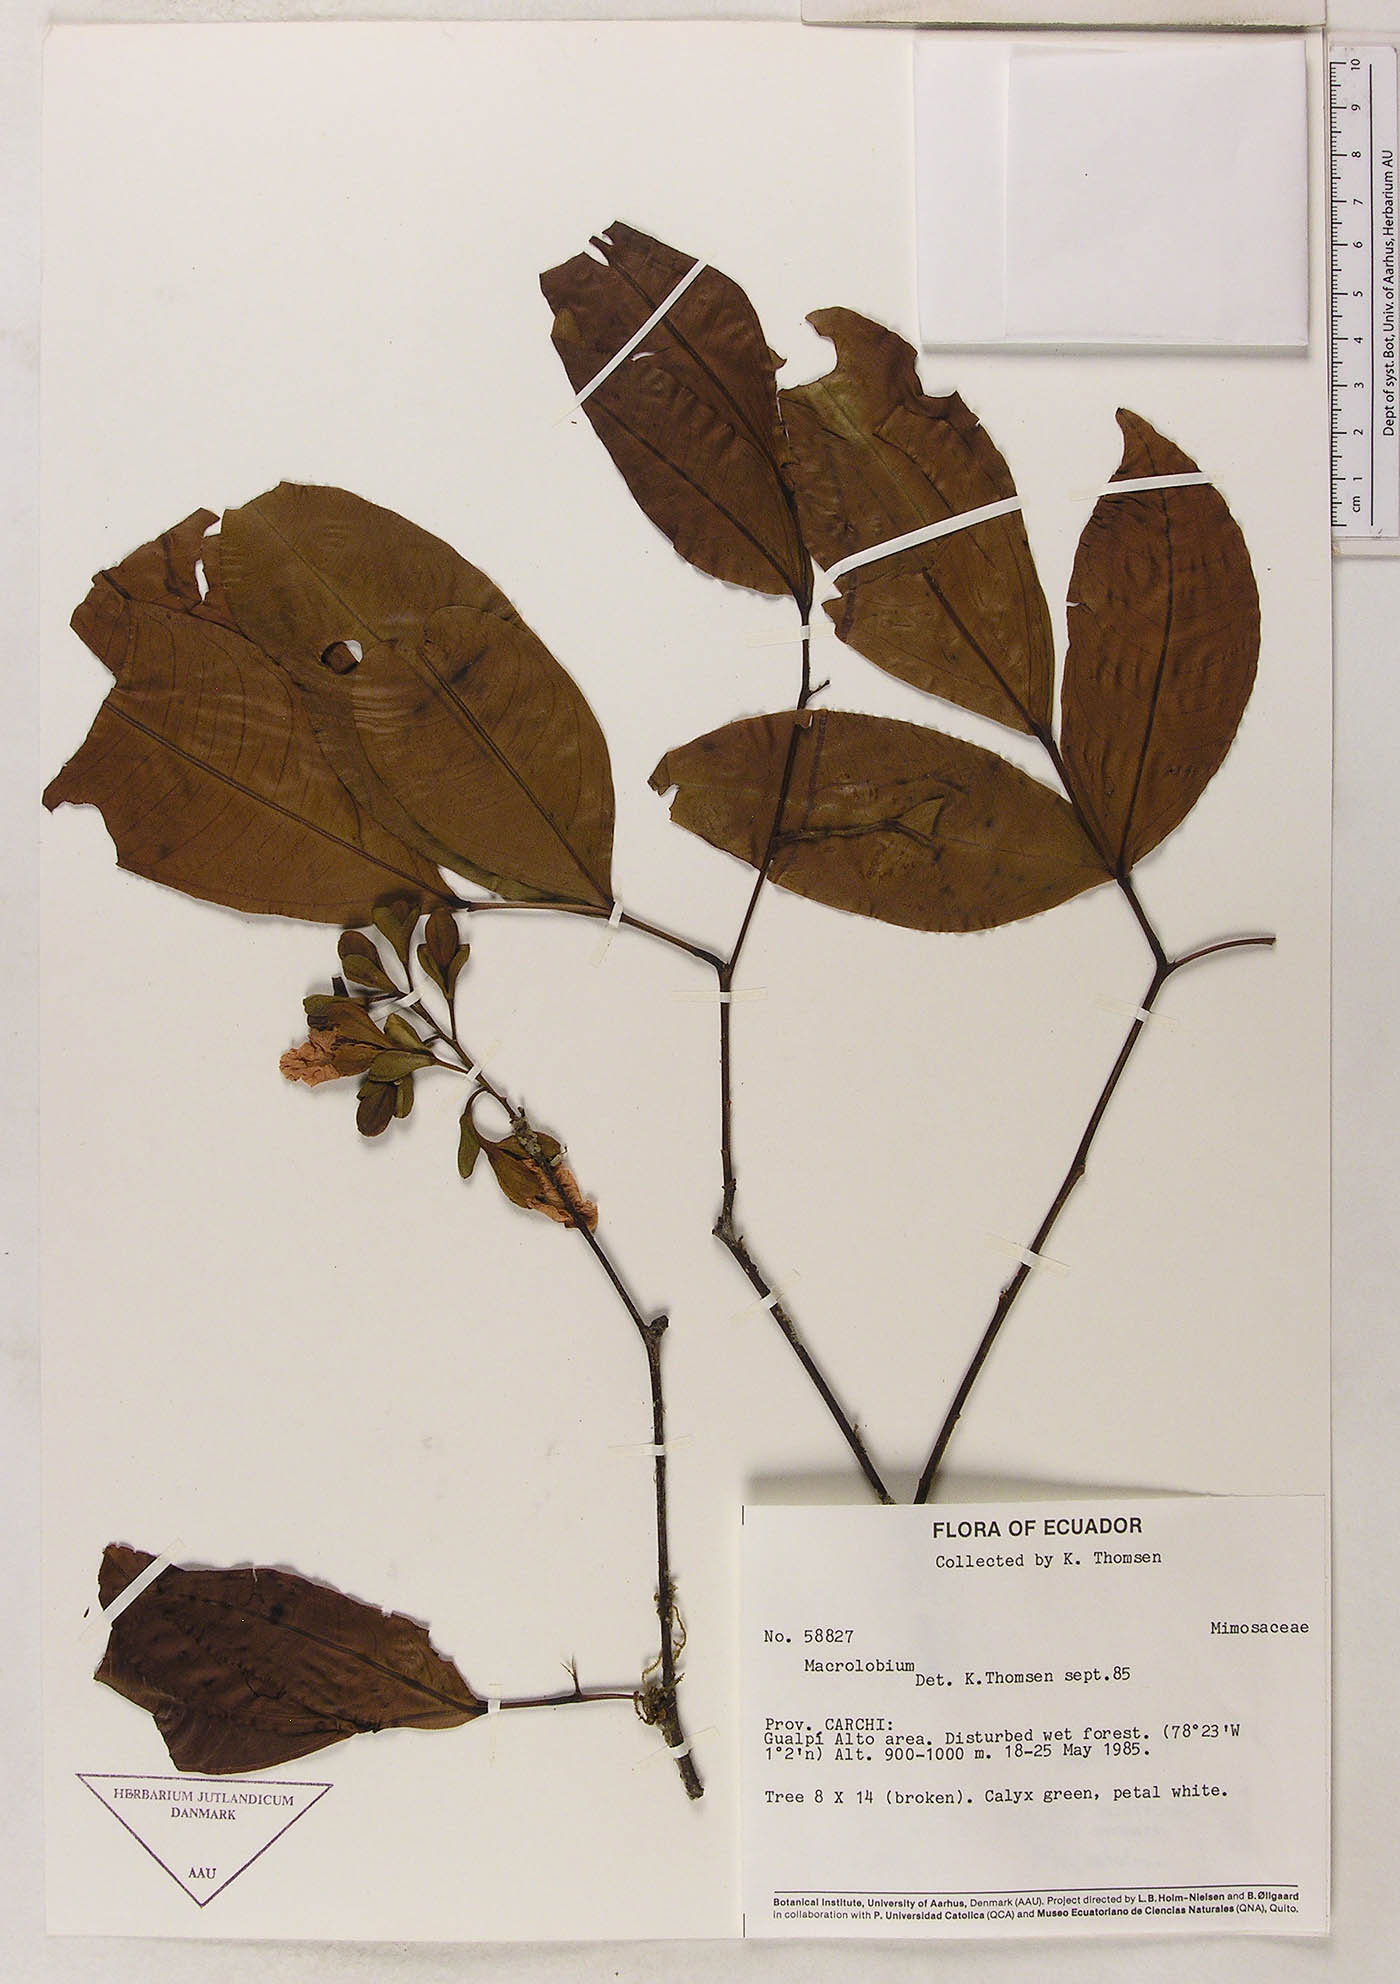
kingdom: Plantae
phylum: Tracheophyta
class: Magnoliopsida
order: Fabales
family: Fabaceae
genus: Macrolobium
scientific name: Macrolobium
